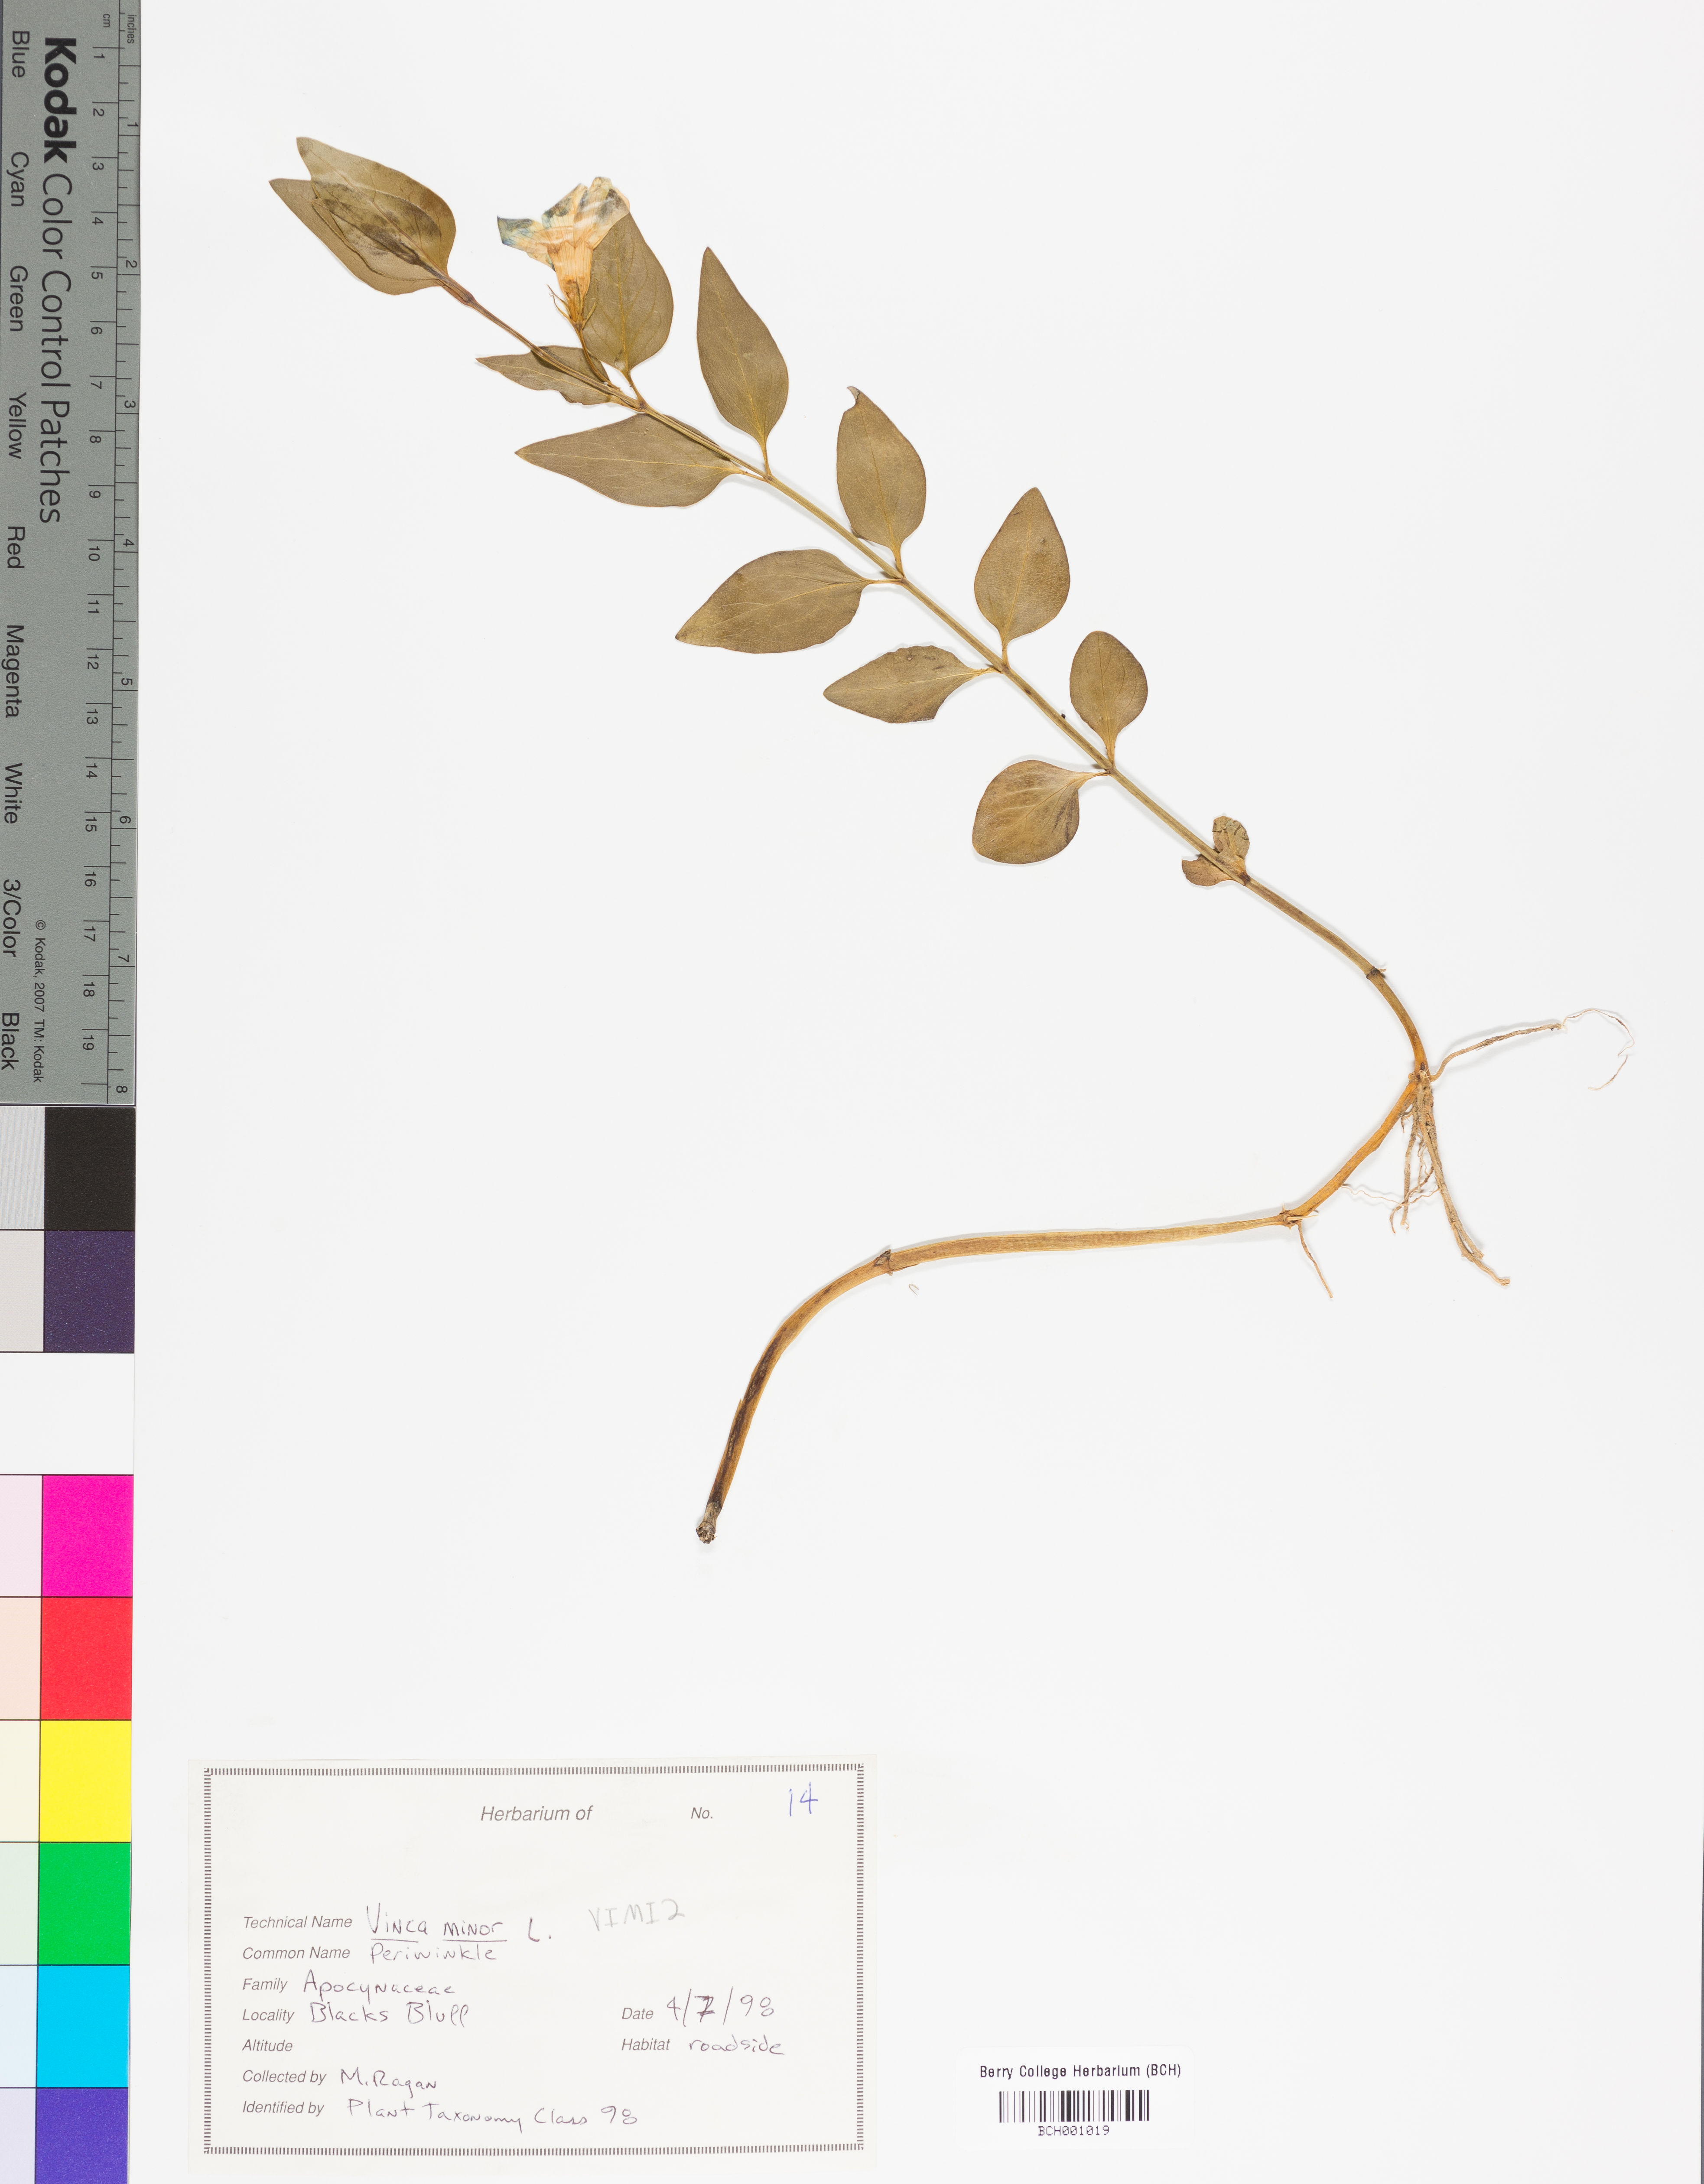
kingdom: Plantae
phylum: Tracheophyta
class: Magnoliopsida
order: Gentianales
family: Apocynaceae
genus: Vinca
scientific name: Vinca minor
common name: Lesser periwinkle
